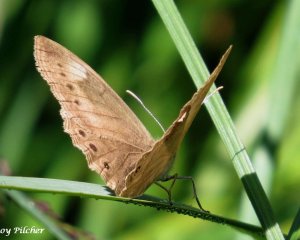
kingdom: Animalia
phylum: Arthropoda
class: Insecta
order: Lepidoptera
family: Nymphalidae
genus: Lethe
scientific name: Lethe eurydice
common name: Eyed Brown
